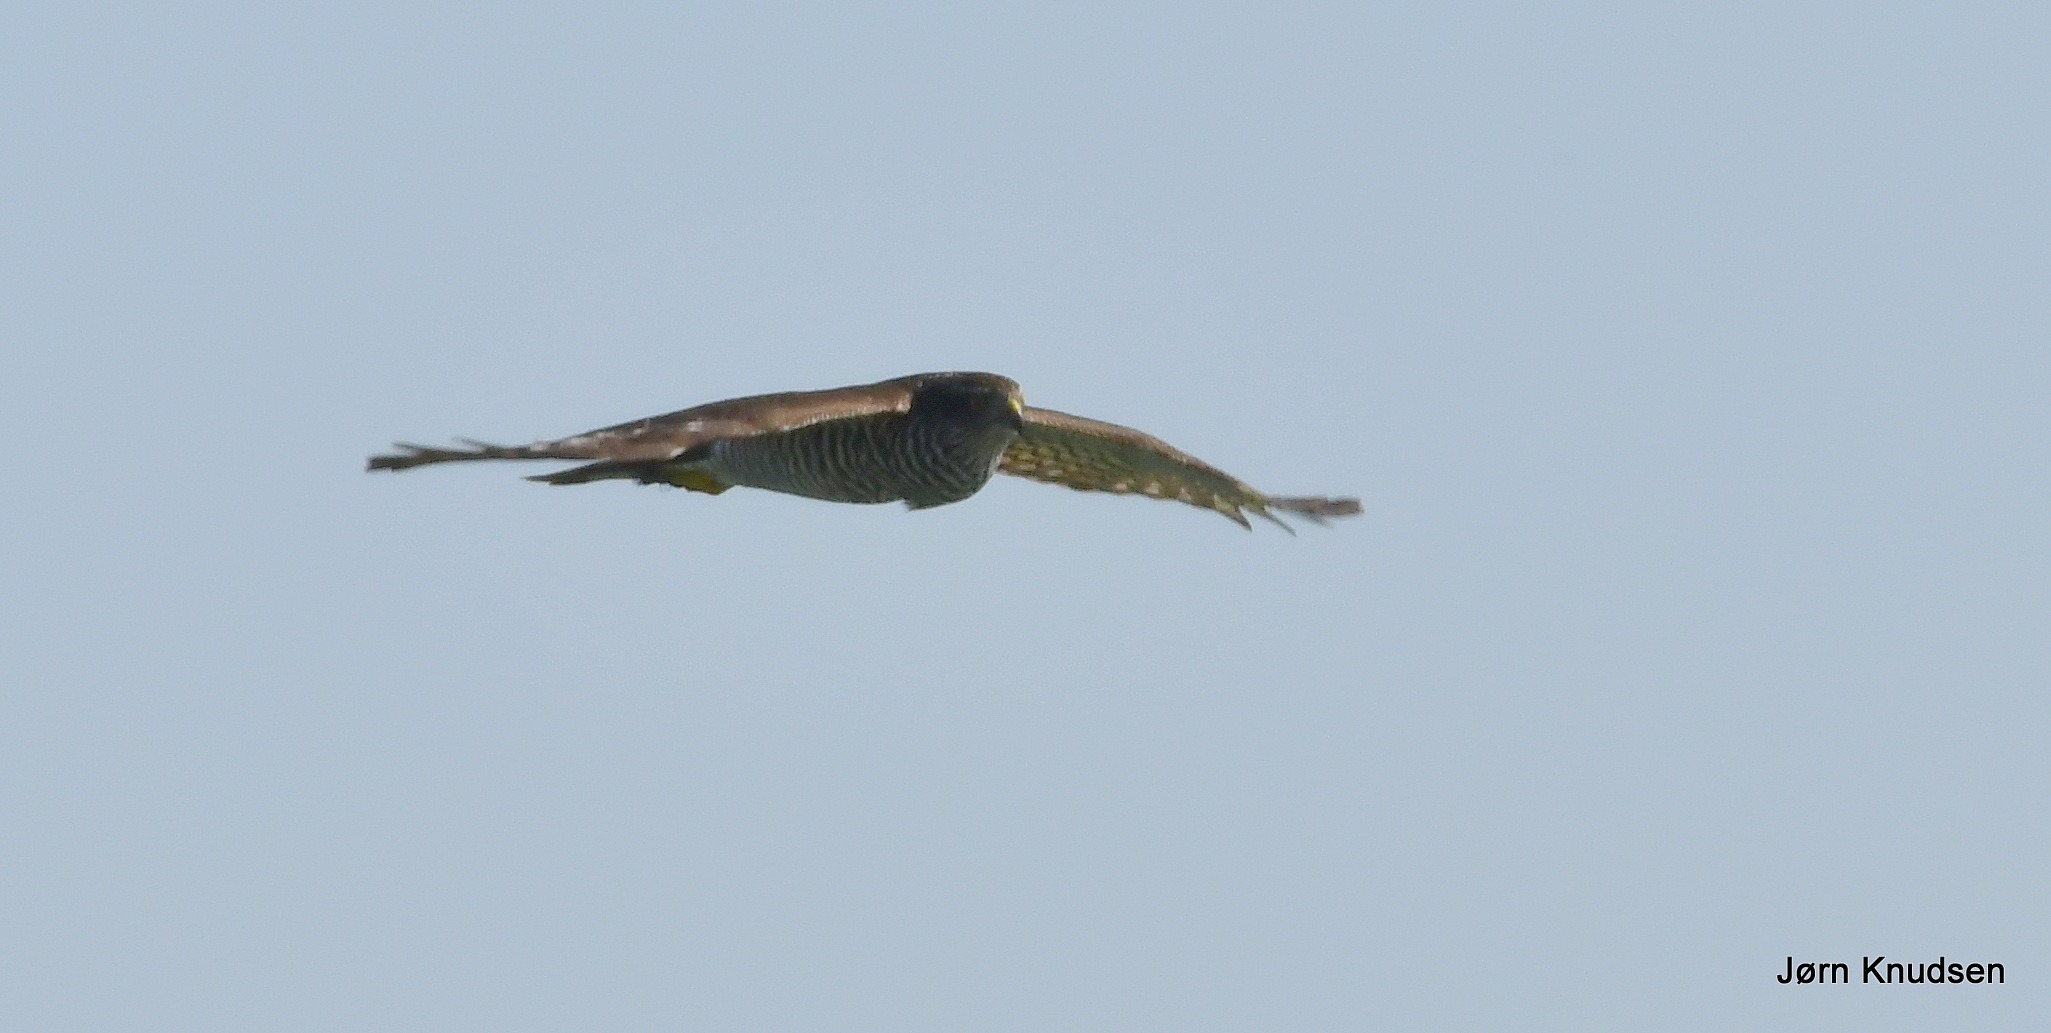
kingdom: Animalia
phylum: Chordata
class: Aves
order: Accipitriformes
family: Accipitridae
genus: Accipiter
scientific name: Accipiter nisus
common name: Spurvehøg
